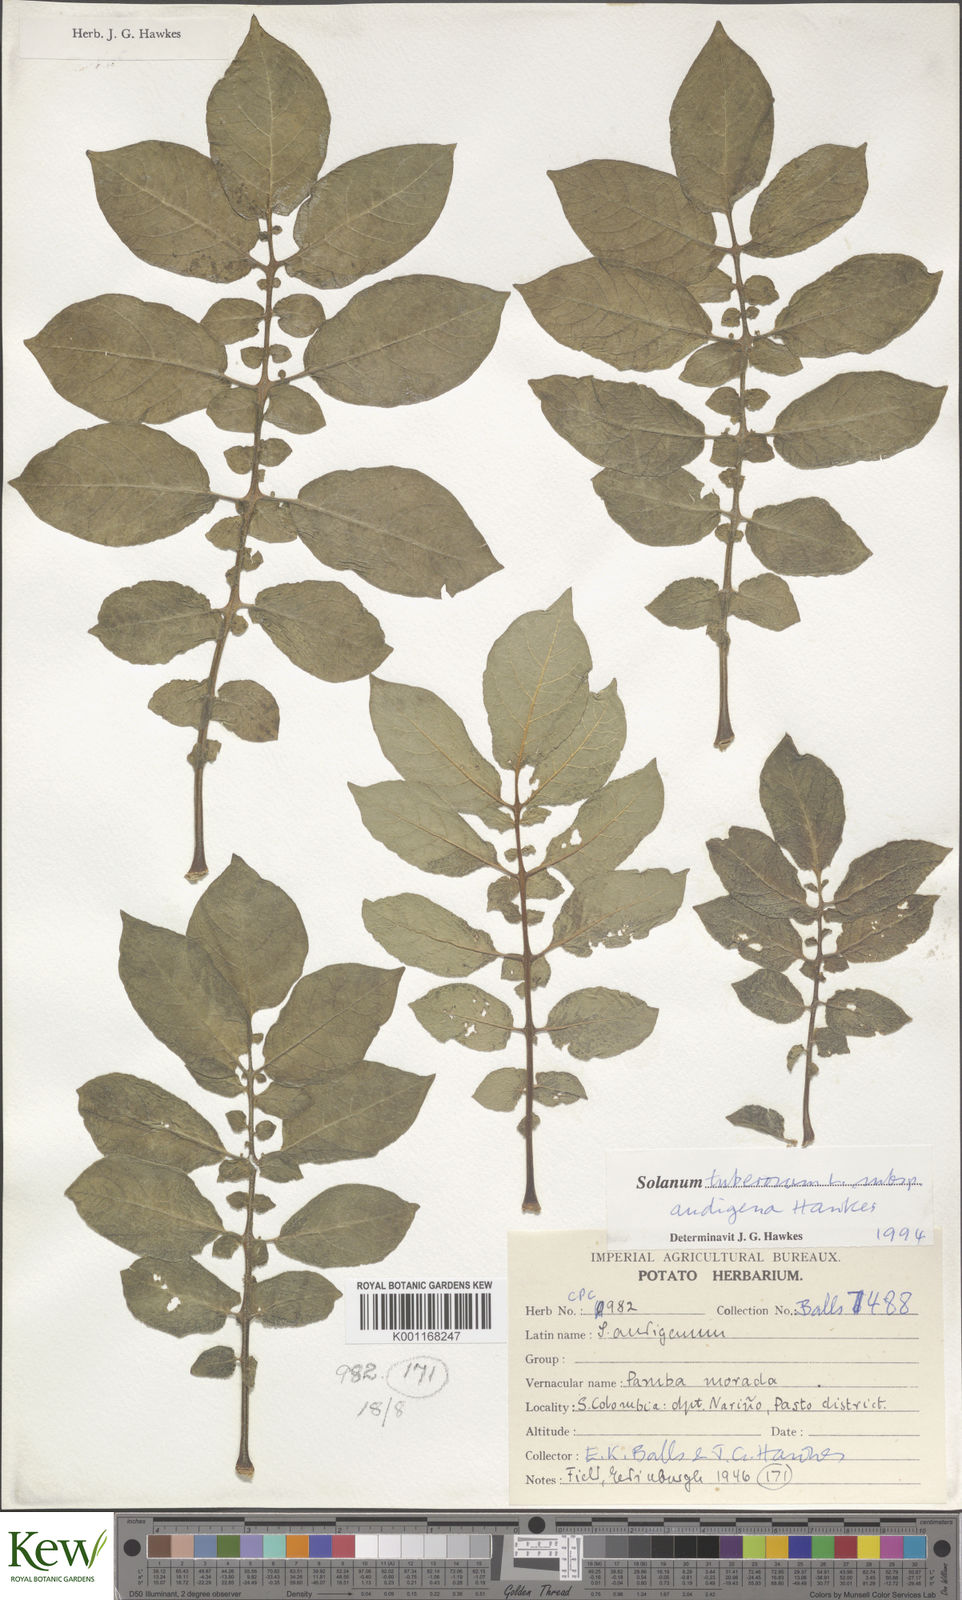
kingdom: Plantae
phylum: Tracheophyta
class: Magnoliopsida
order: Solanales
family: Solanaceae
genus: Solanum
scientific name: Solanum tuberosum
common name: Potato
